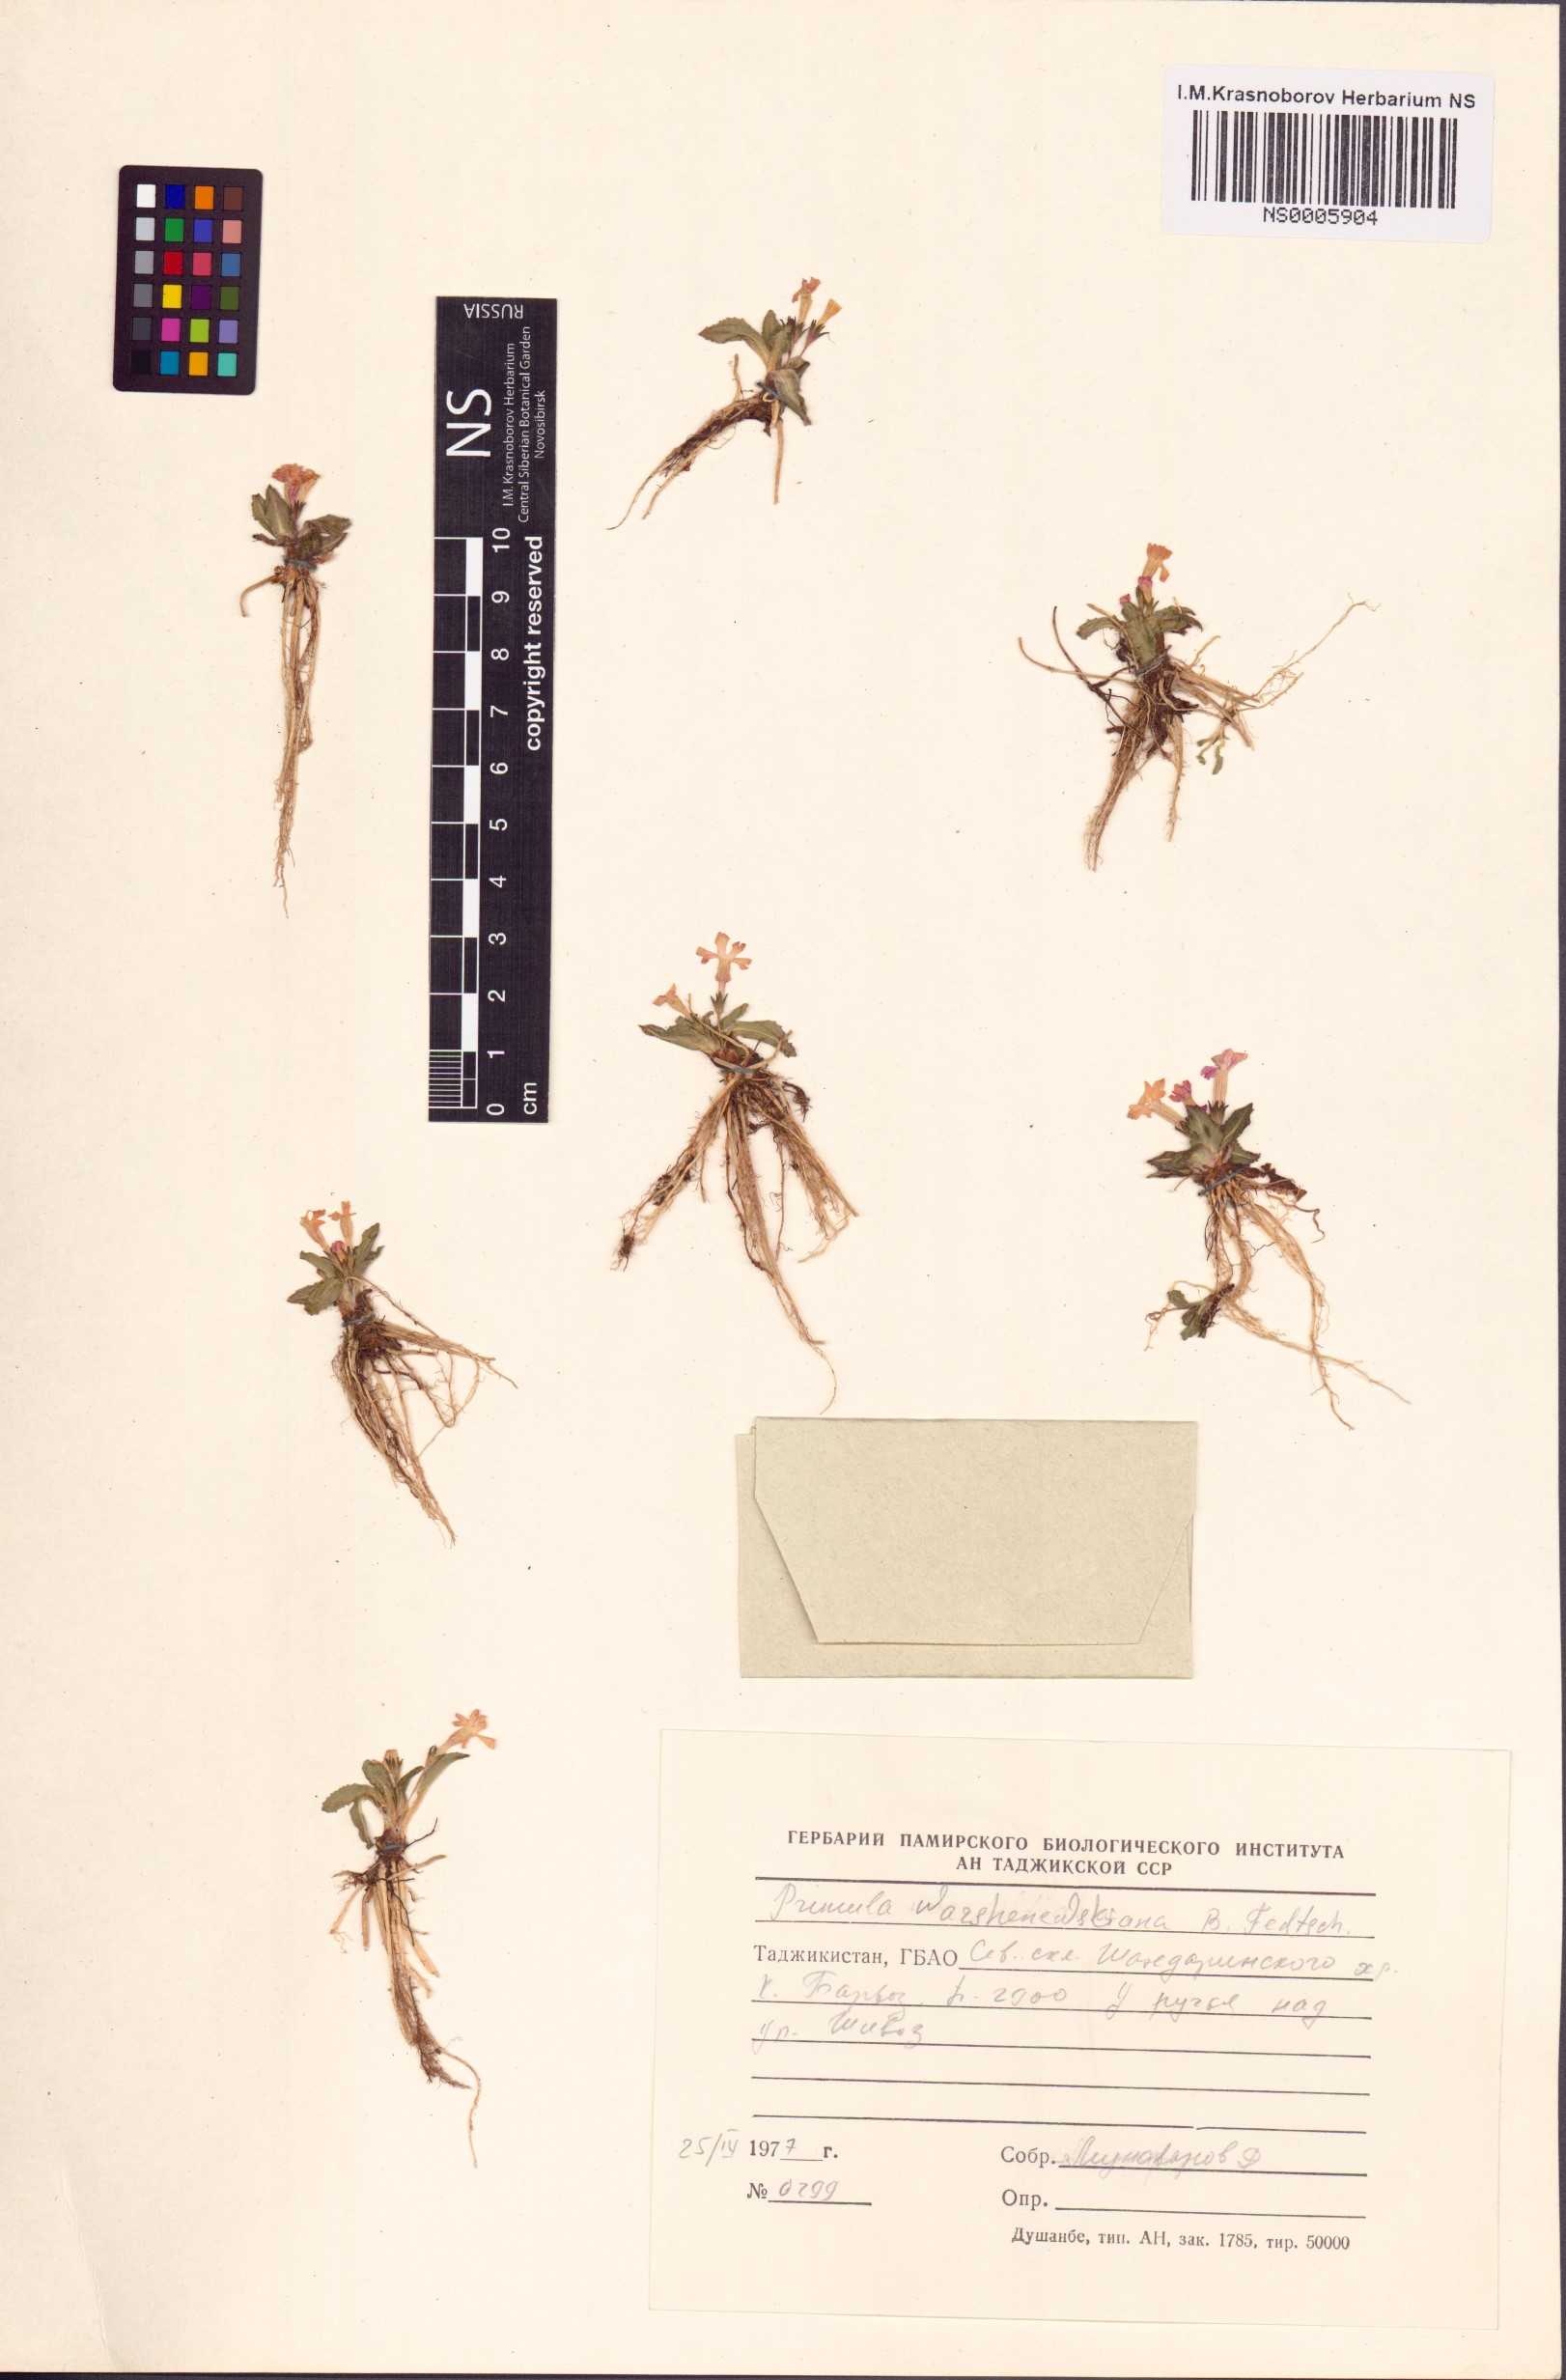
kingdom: Plantae
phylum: Tracheophyta
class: Magnoliopsida
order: Ericales
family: Primulaceae
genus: Primula
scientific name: Primula warshenewskiana
